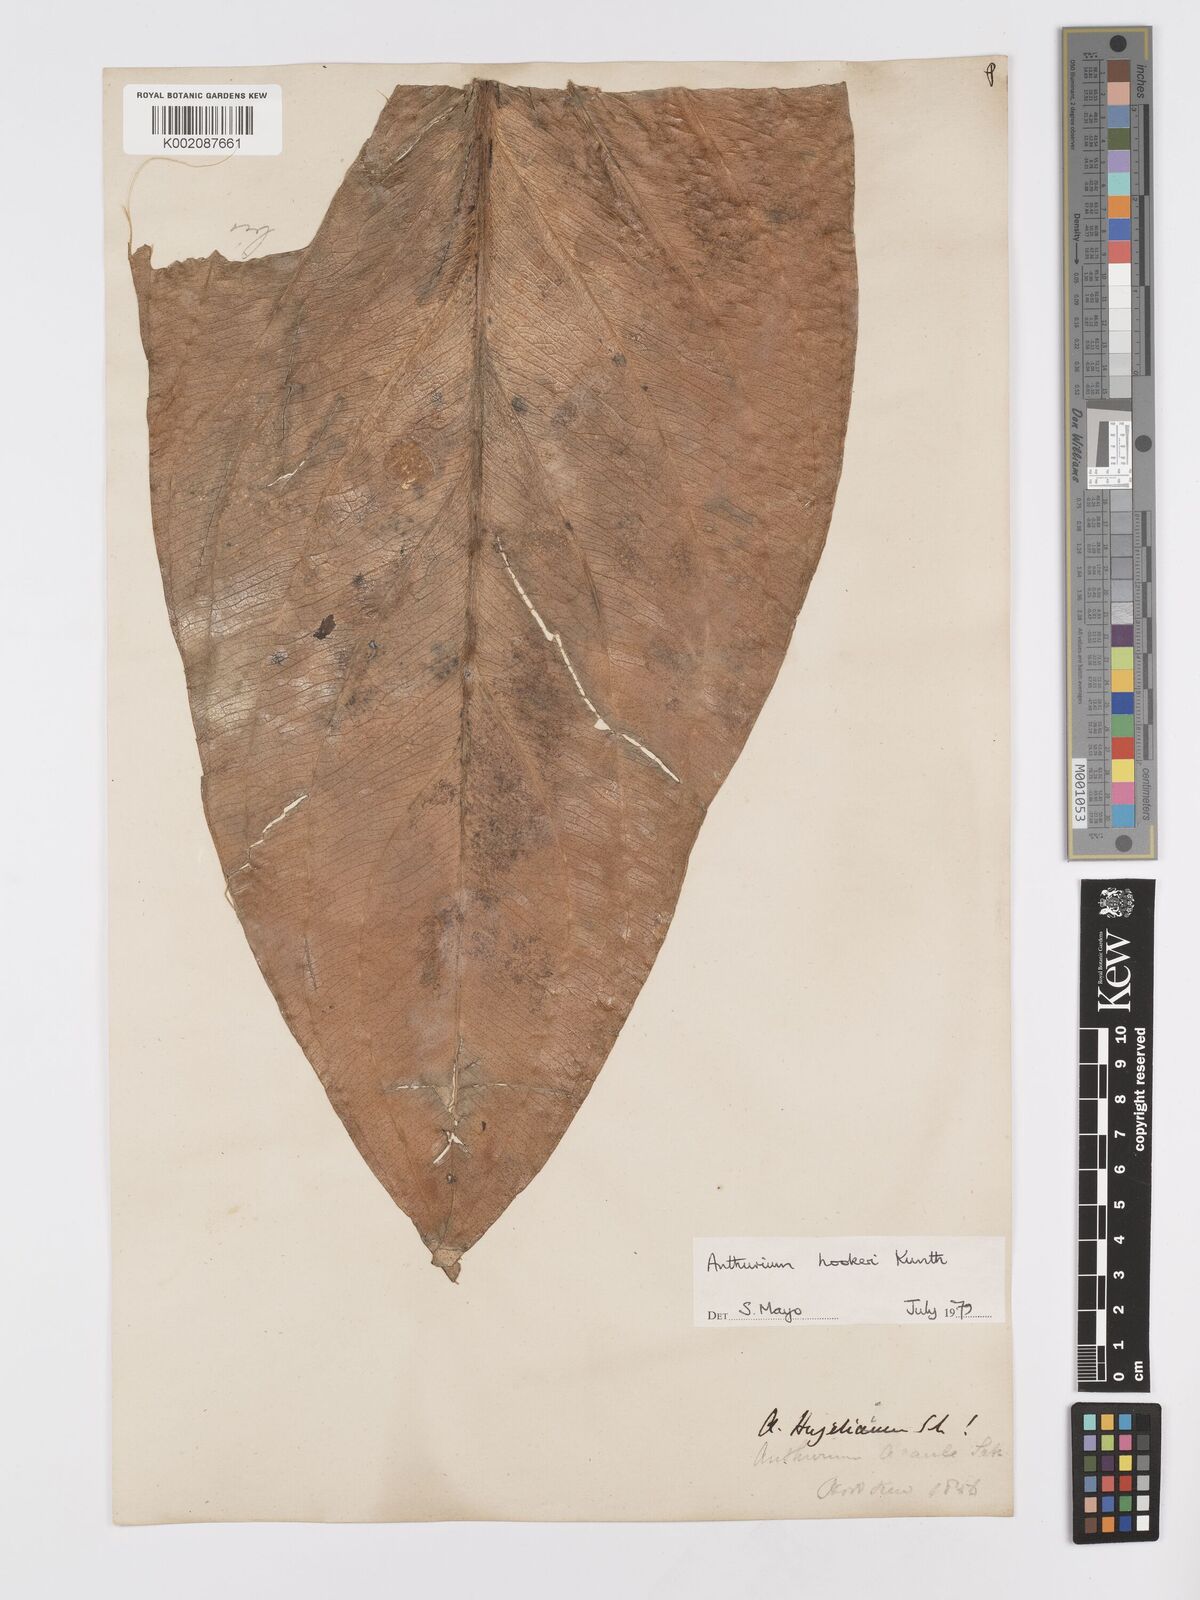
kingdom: Plantae
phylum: Tracheophyta
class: Liliopsida
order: Alismatales
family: Araceae
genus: Anthurium
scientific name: Anthurium hookeri
